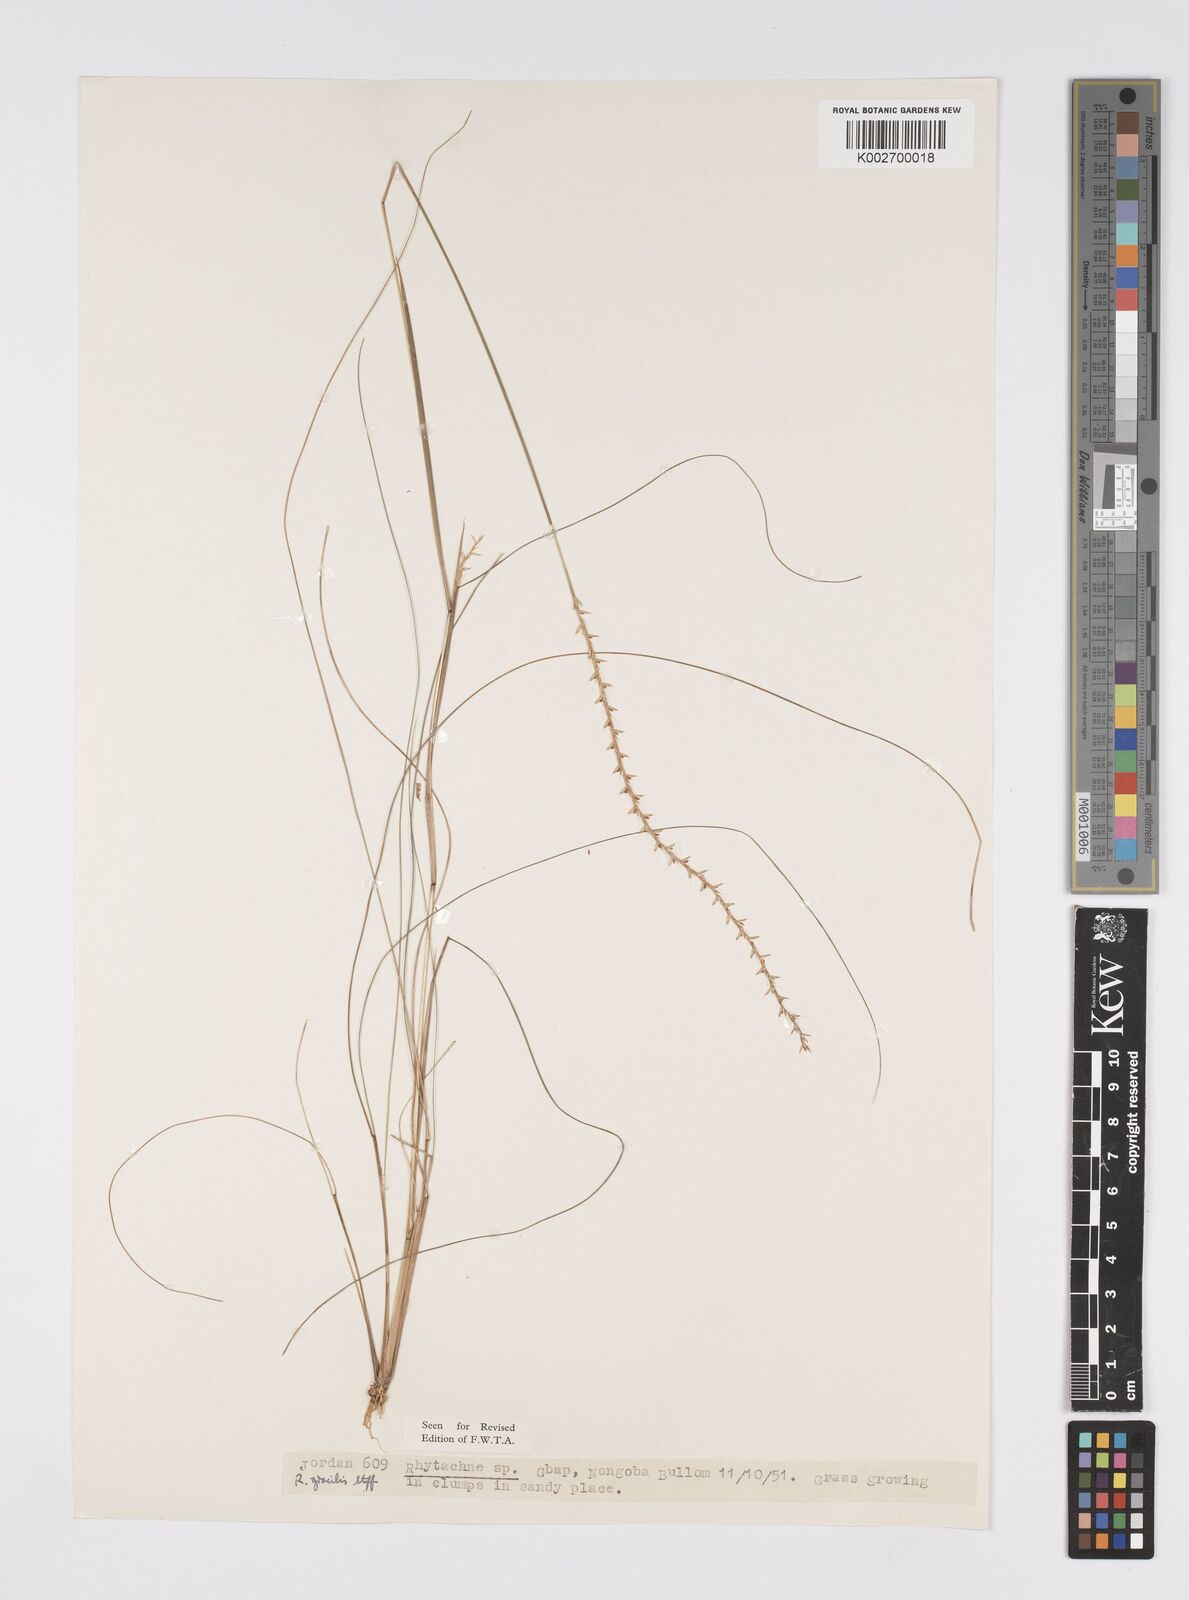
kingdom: Plantae
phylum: Tracheophyta
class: Liliopsida
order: Poales
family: Poaceae
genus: Rhytachne
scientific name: Rhytachne gracilis
